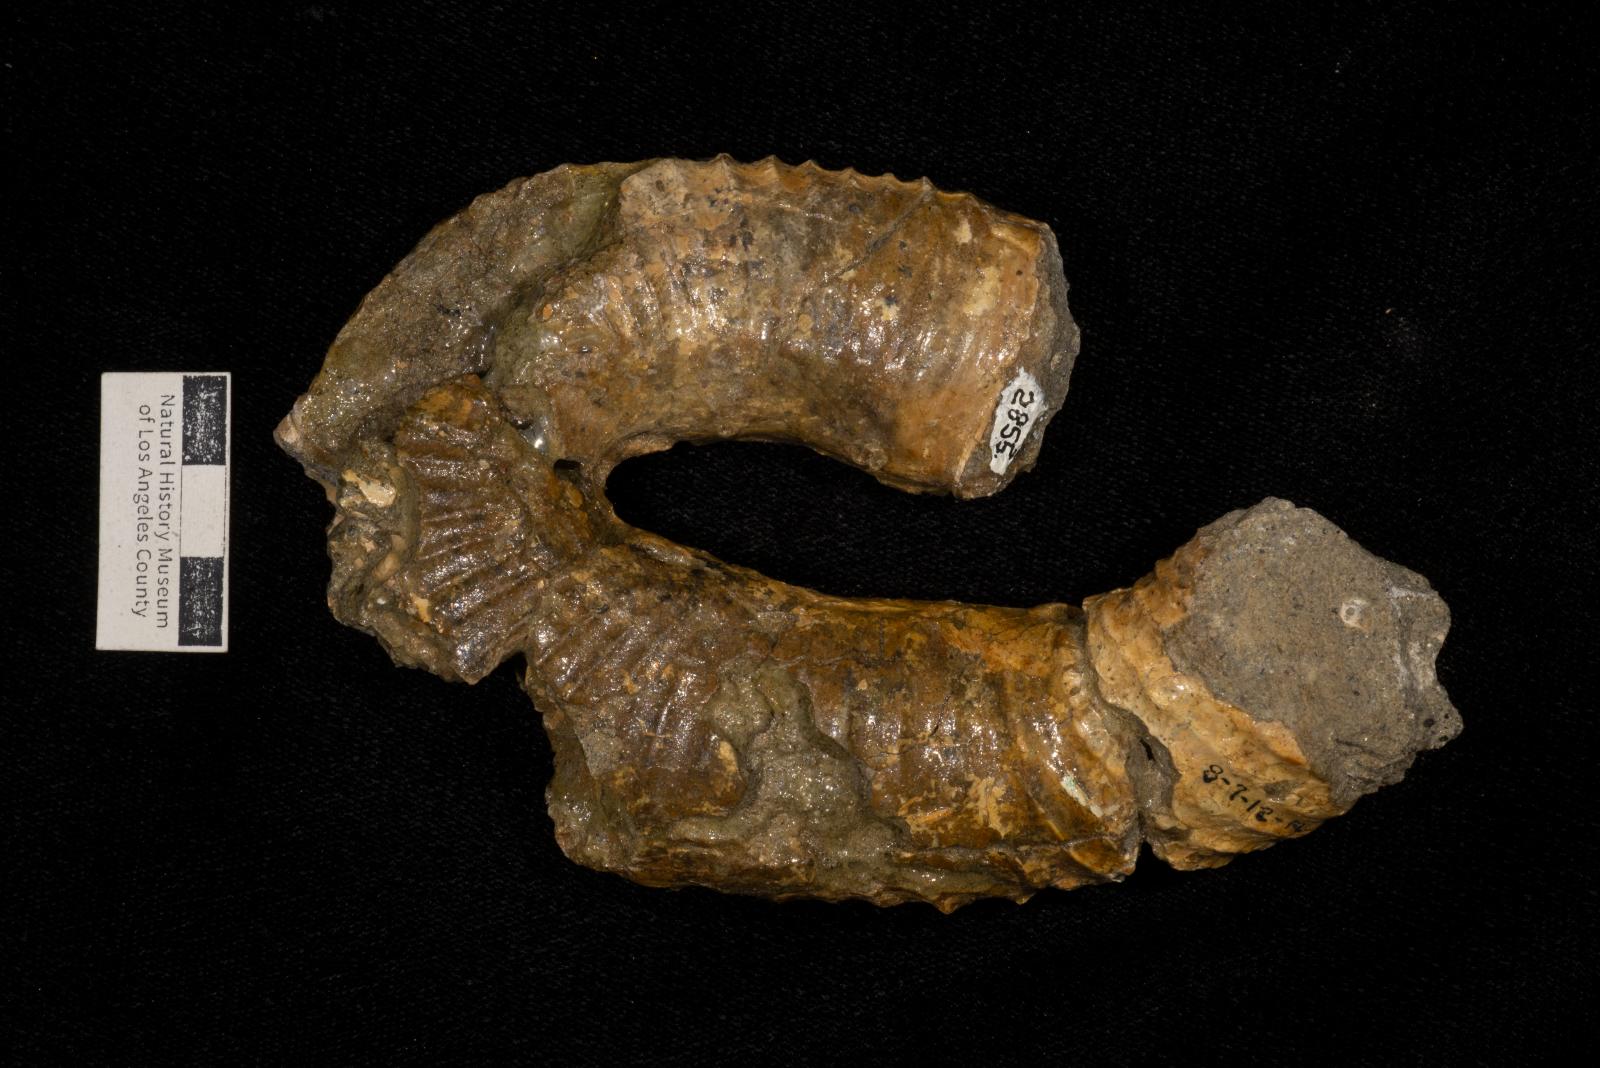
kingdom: Animalia
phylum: Mollusca
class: Cephalopoda
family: Nostoceratidae
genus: Nostoceras
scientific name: Nostoceras approximans
